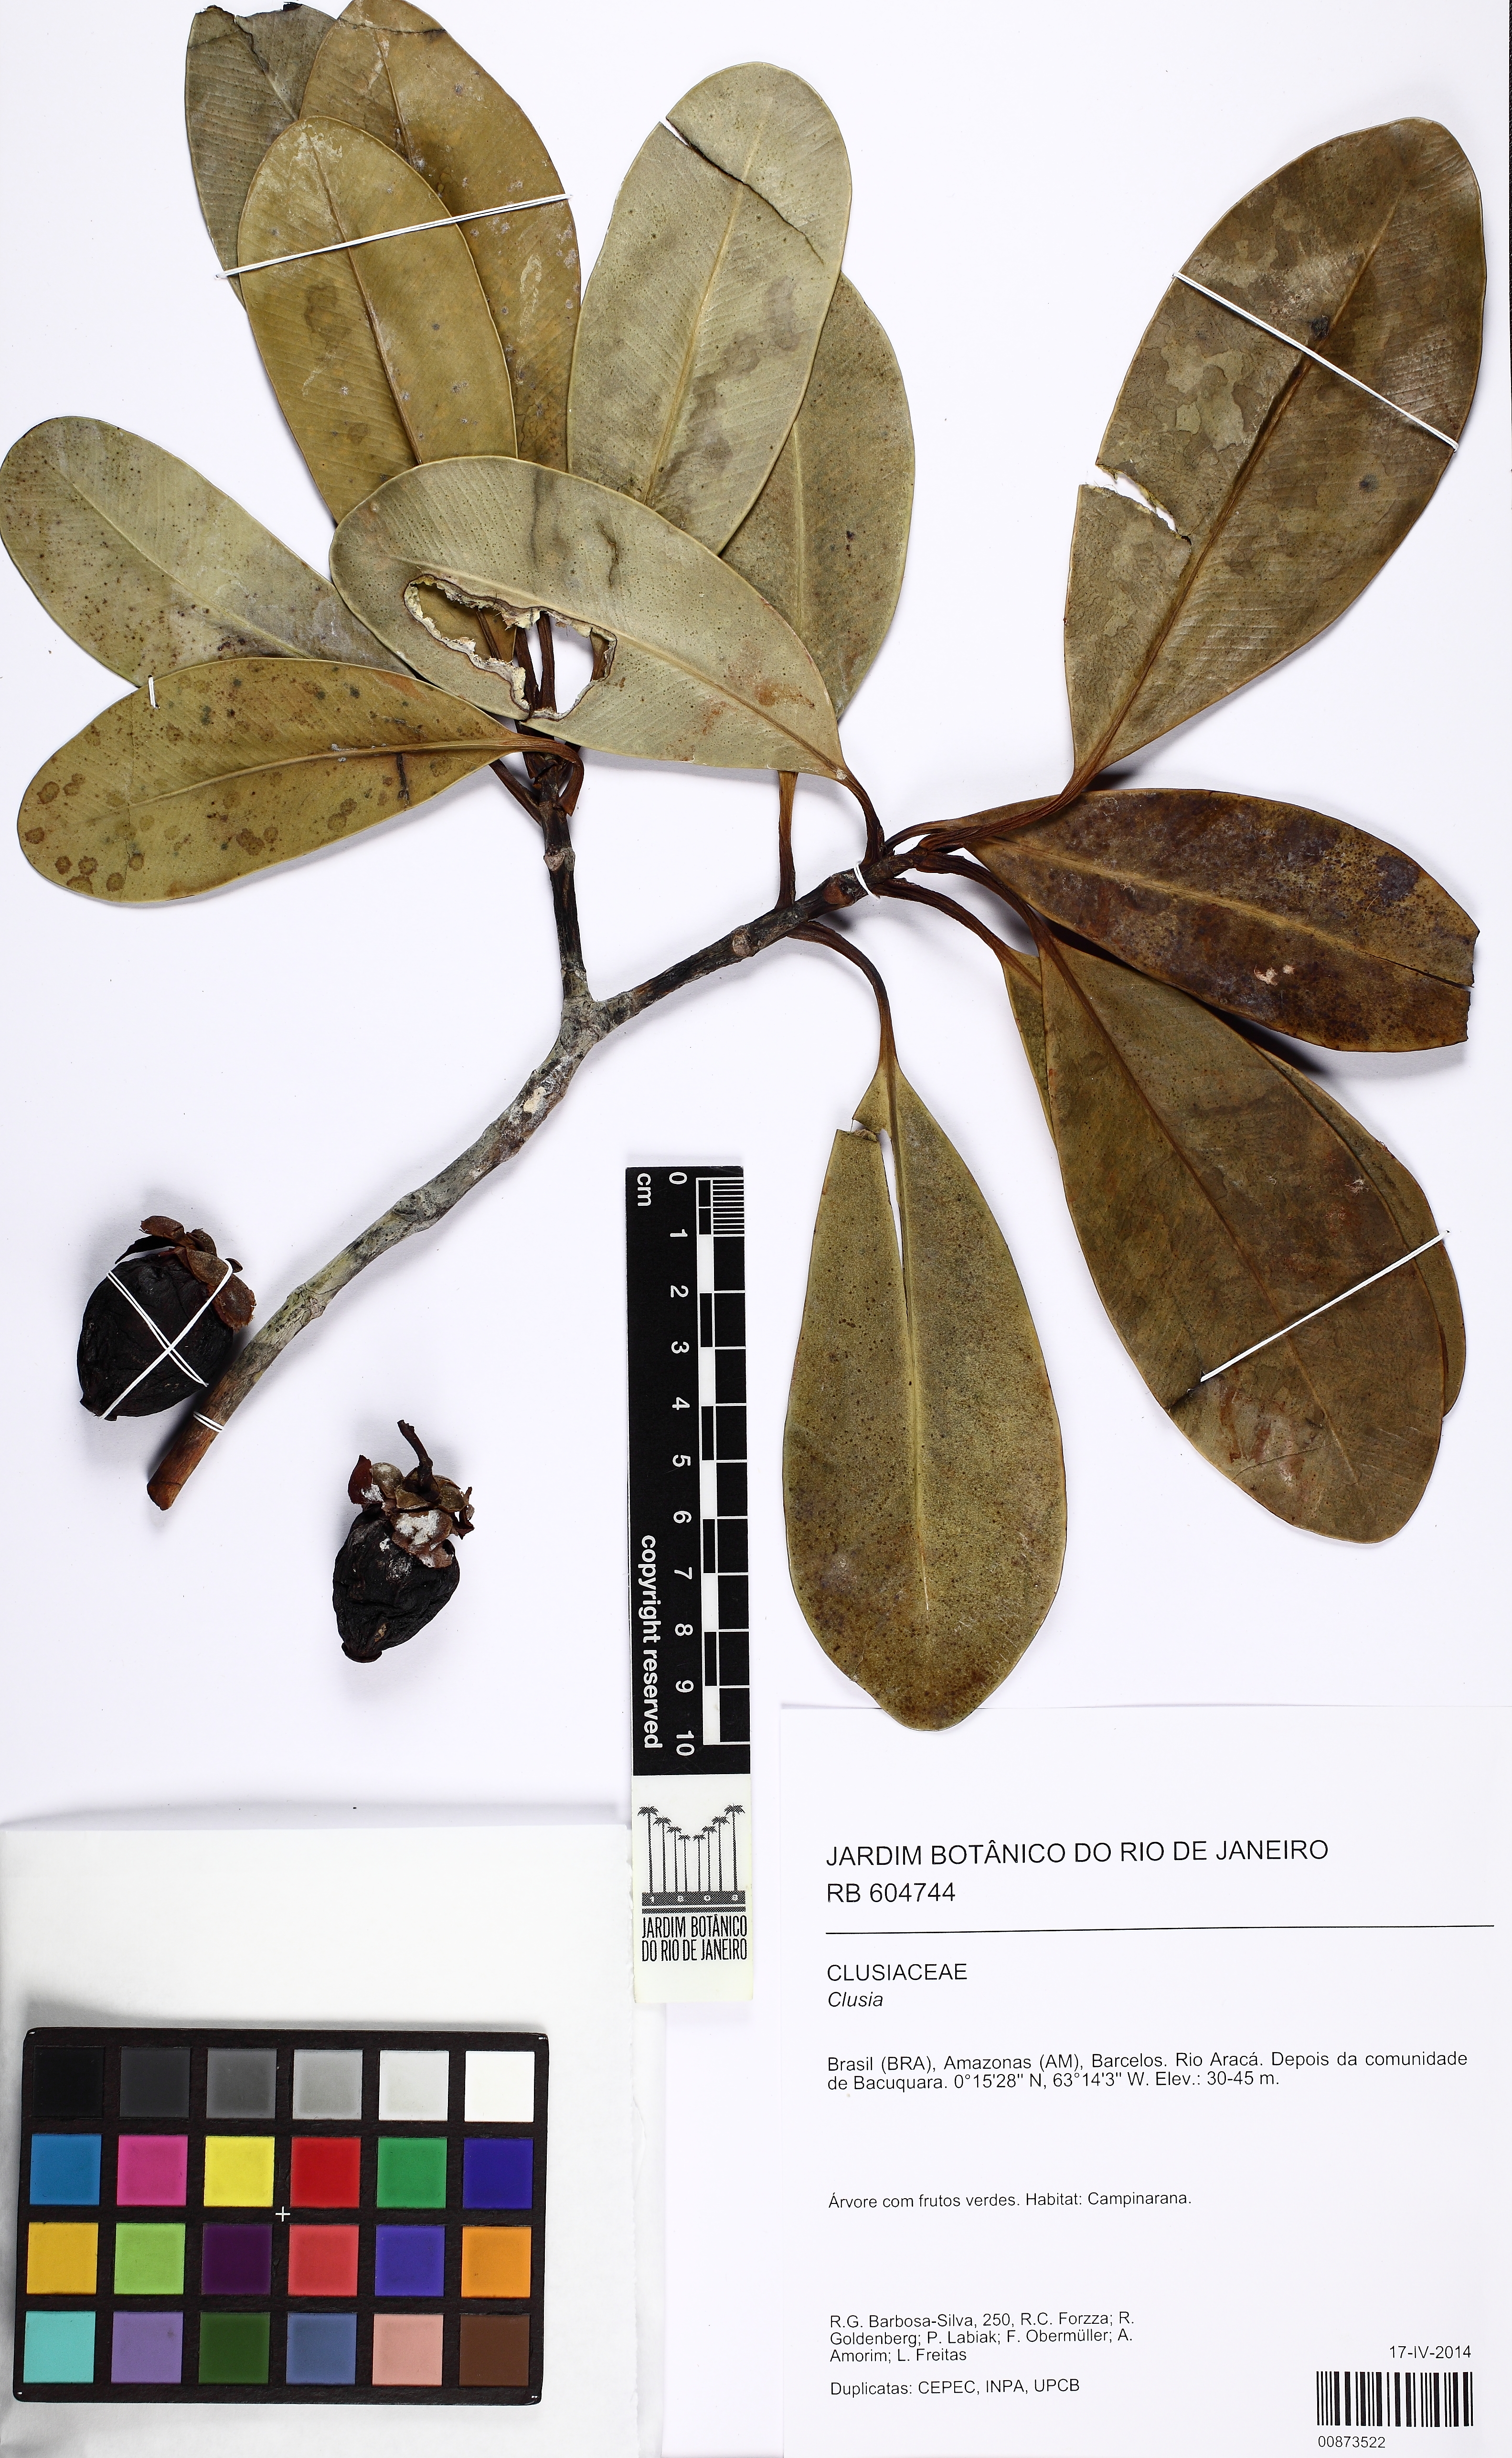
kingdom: Plantae
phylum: Tracheophyta
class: Magnoliopsida
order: Malpighiales
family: Clusiaceae
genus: Clusia
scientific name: Clusia
